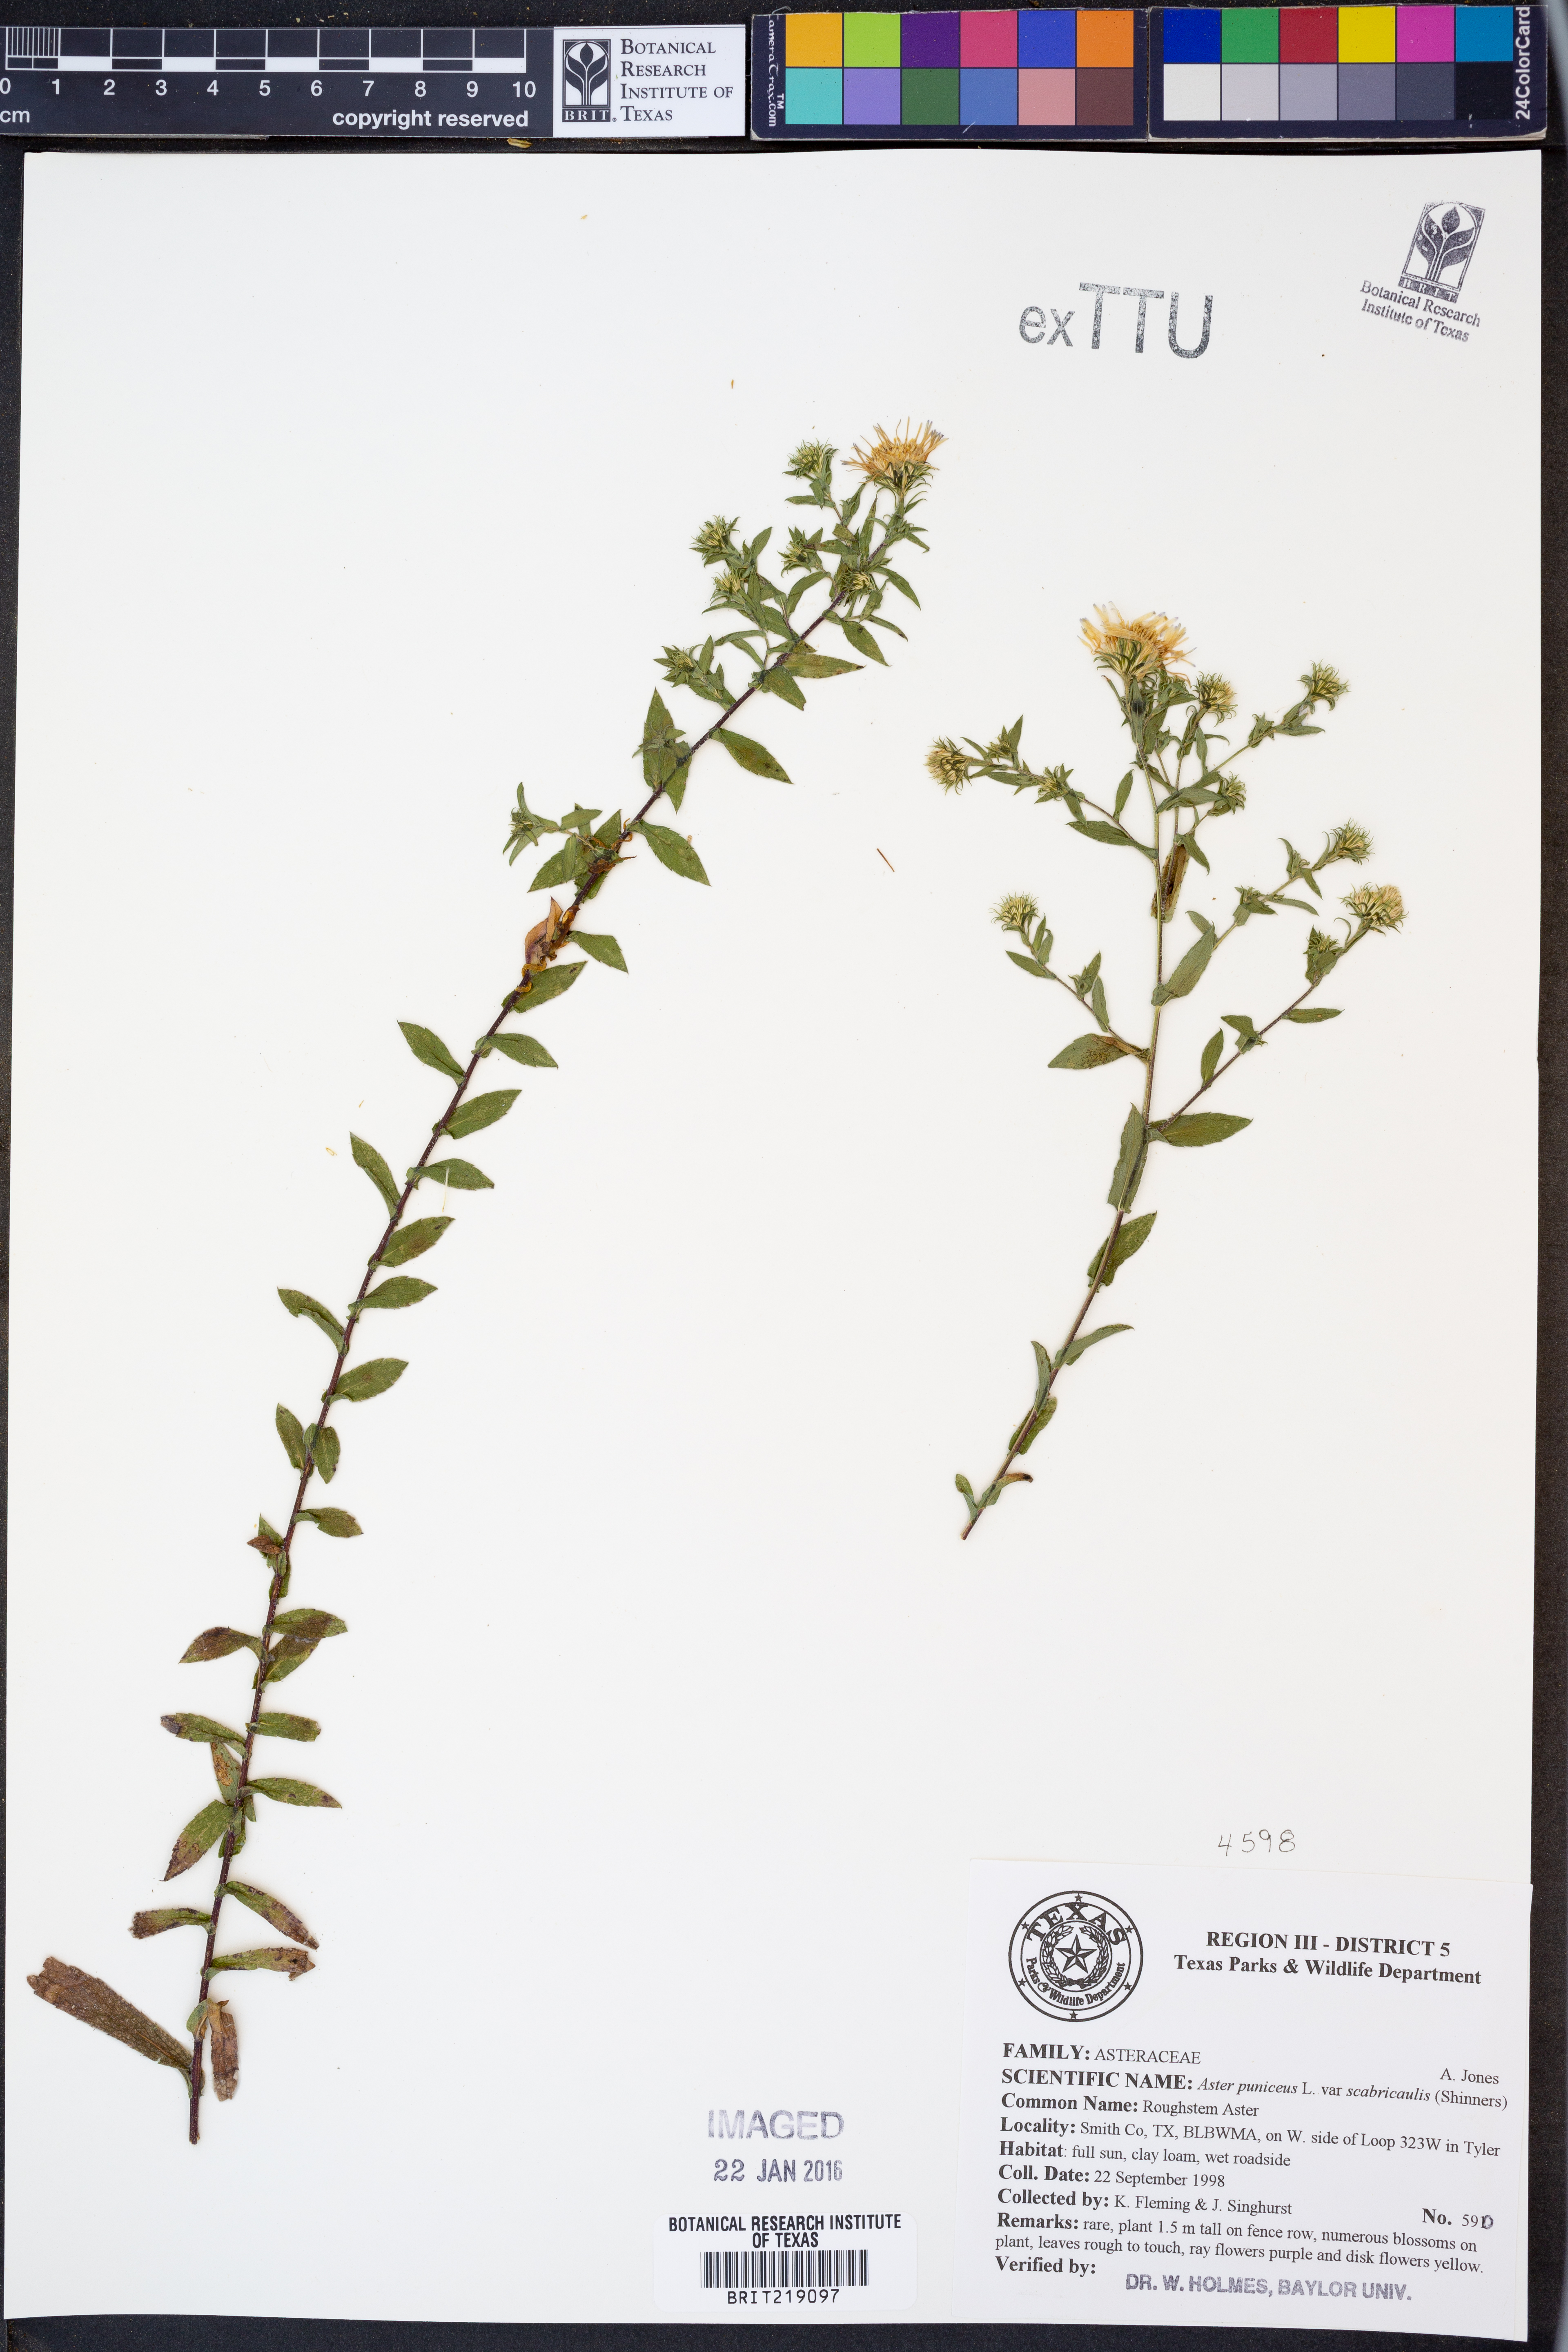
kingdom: Plantae
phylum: Tracheophyta
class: Magnoliopsida
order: Asterales
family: Asteraceae
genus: Symphyotrichum
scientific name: Symphyotrichum puniceum
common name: Bog aster
